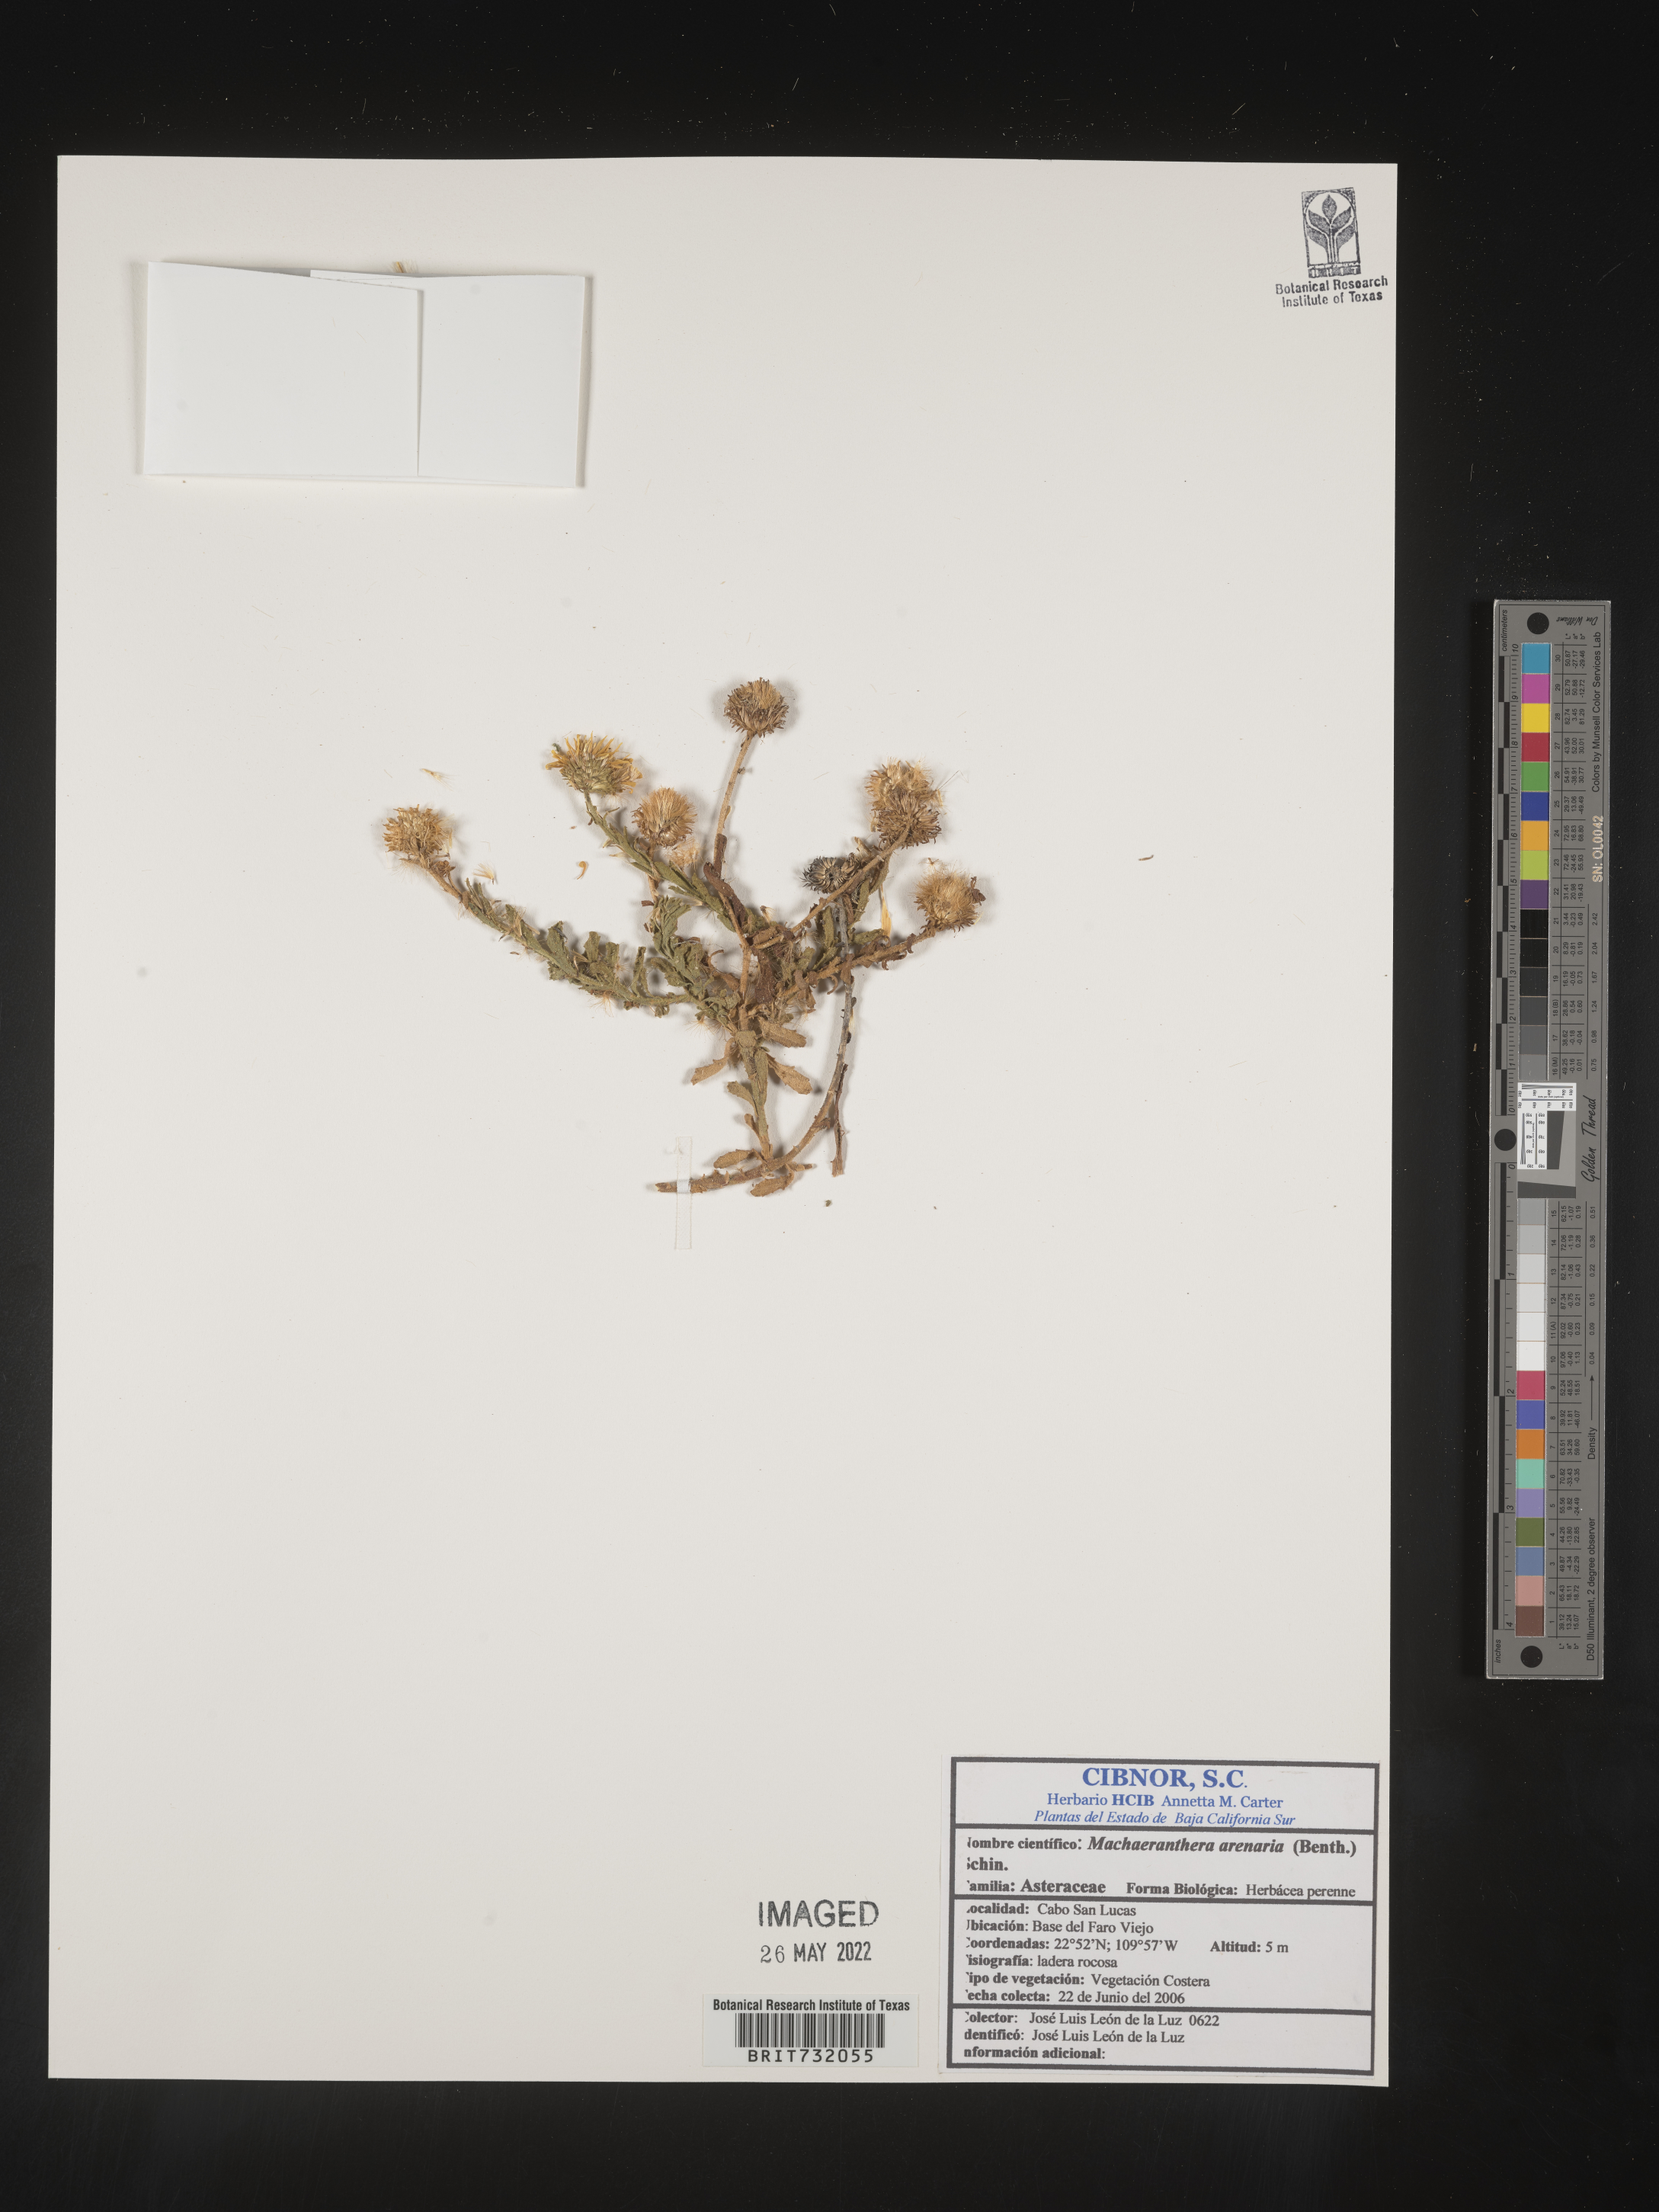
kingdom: Plantae
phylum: Tracheophyta
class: Magnoliopsida
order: Asterales
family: Asteraceae
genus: Xanthisma
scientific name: Xanthisma arenarium
